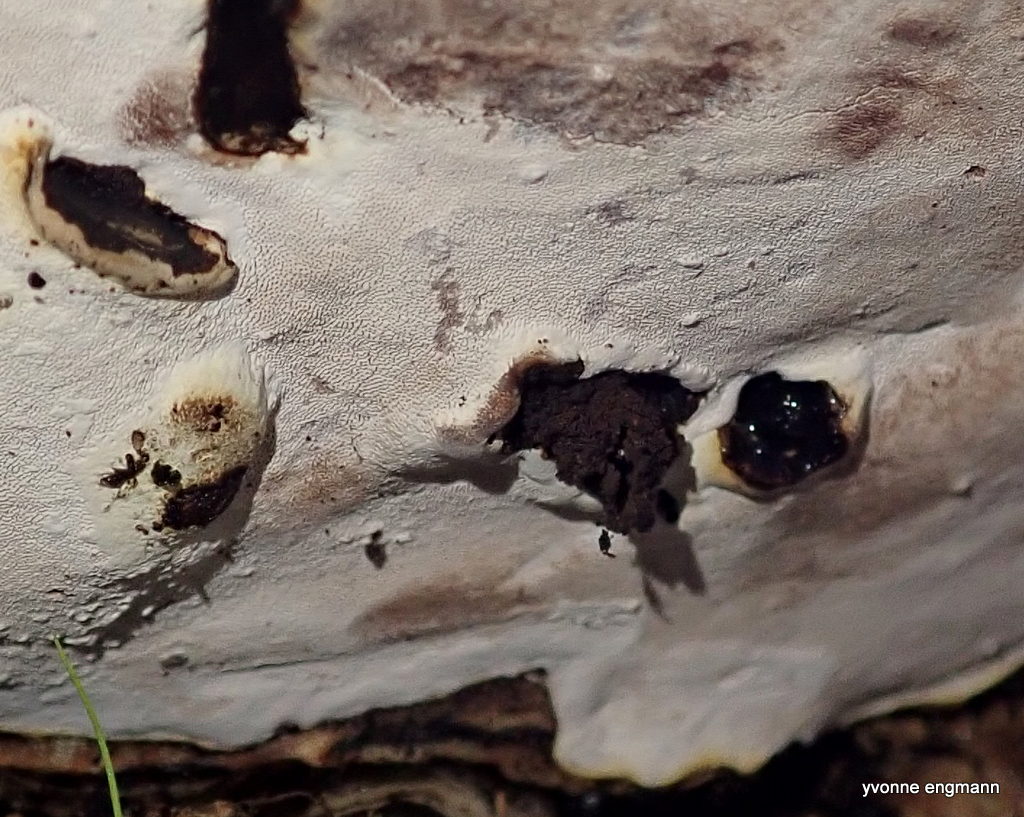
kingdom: Fungi
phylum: Basidiomycota
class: Agaricomycetes
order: Polyporales
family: Fomitopsidaceae
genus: Fomitopsis
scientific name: Fomitopsis pinicola
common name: randbæltet hovporesvamp
